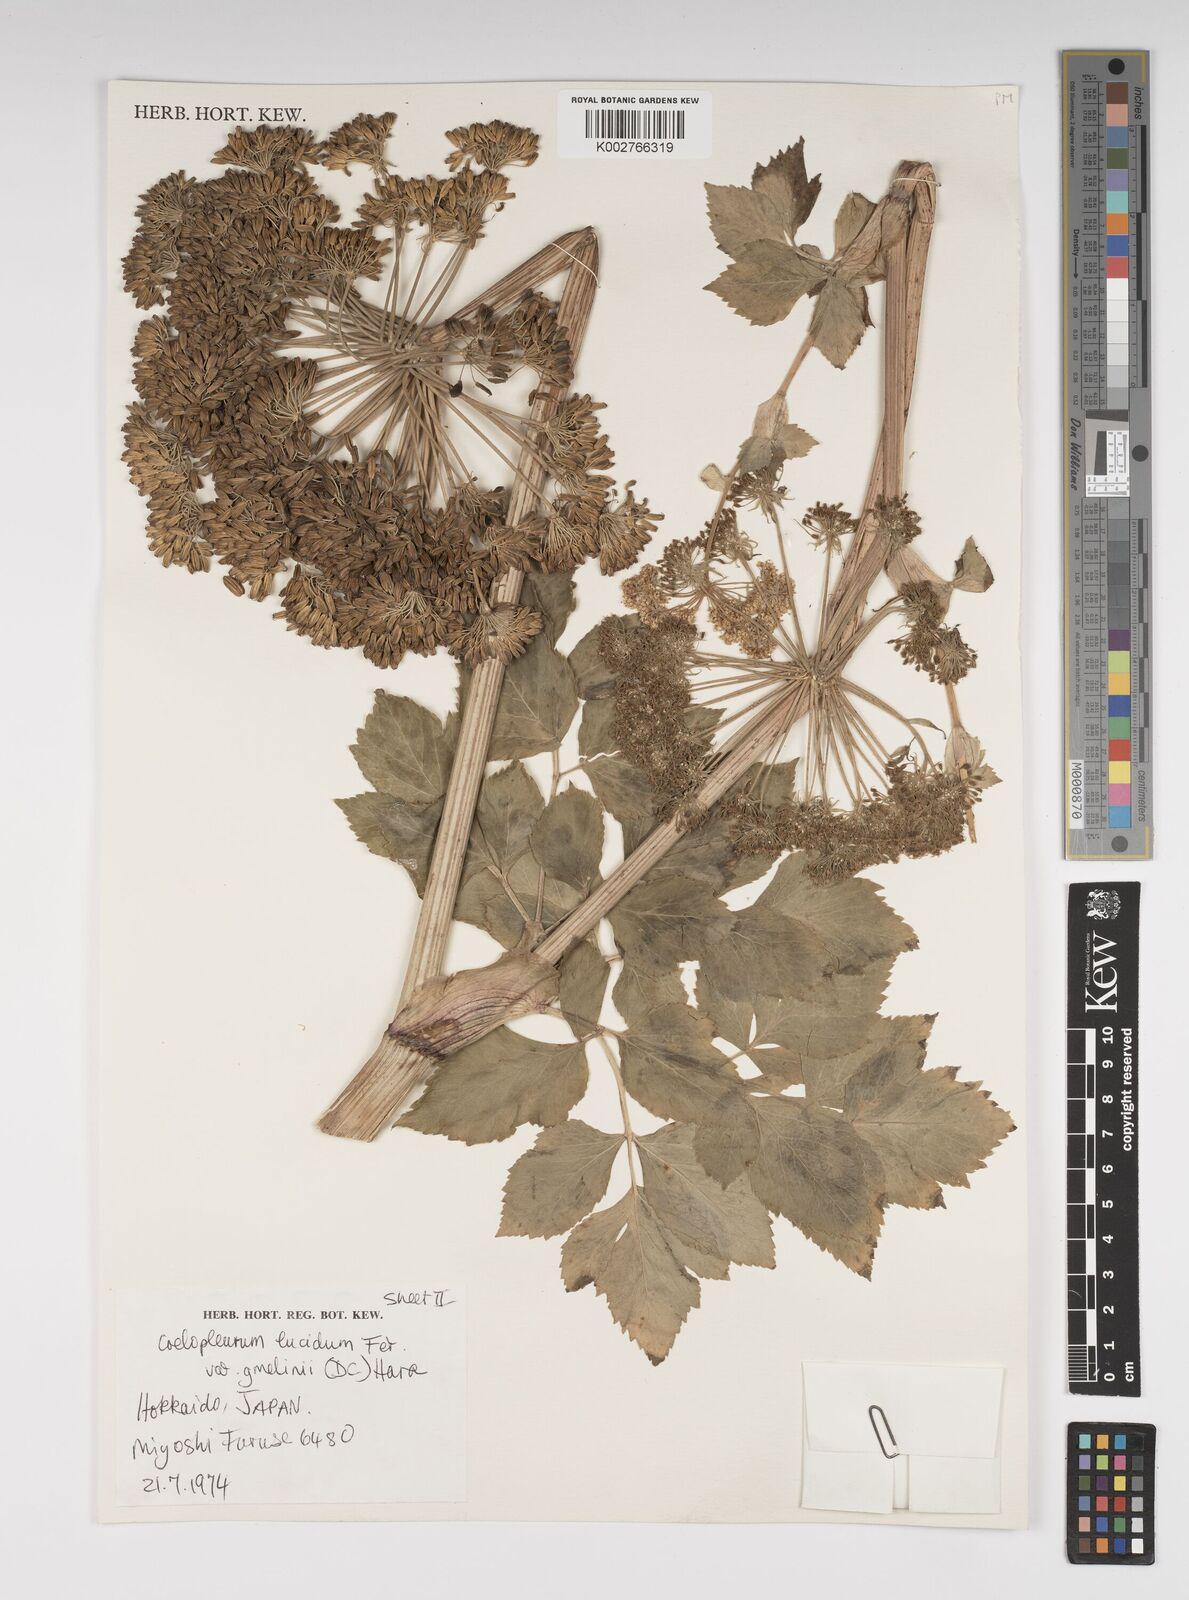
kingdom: Plantae
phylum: Tracheophyta
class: Magnoliopsida
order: Apiales
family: Apiaceae
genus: Angelica
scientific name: Angelica gmelinii
